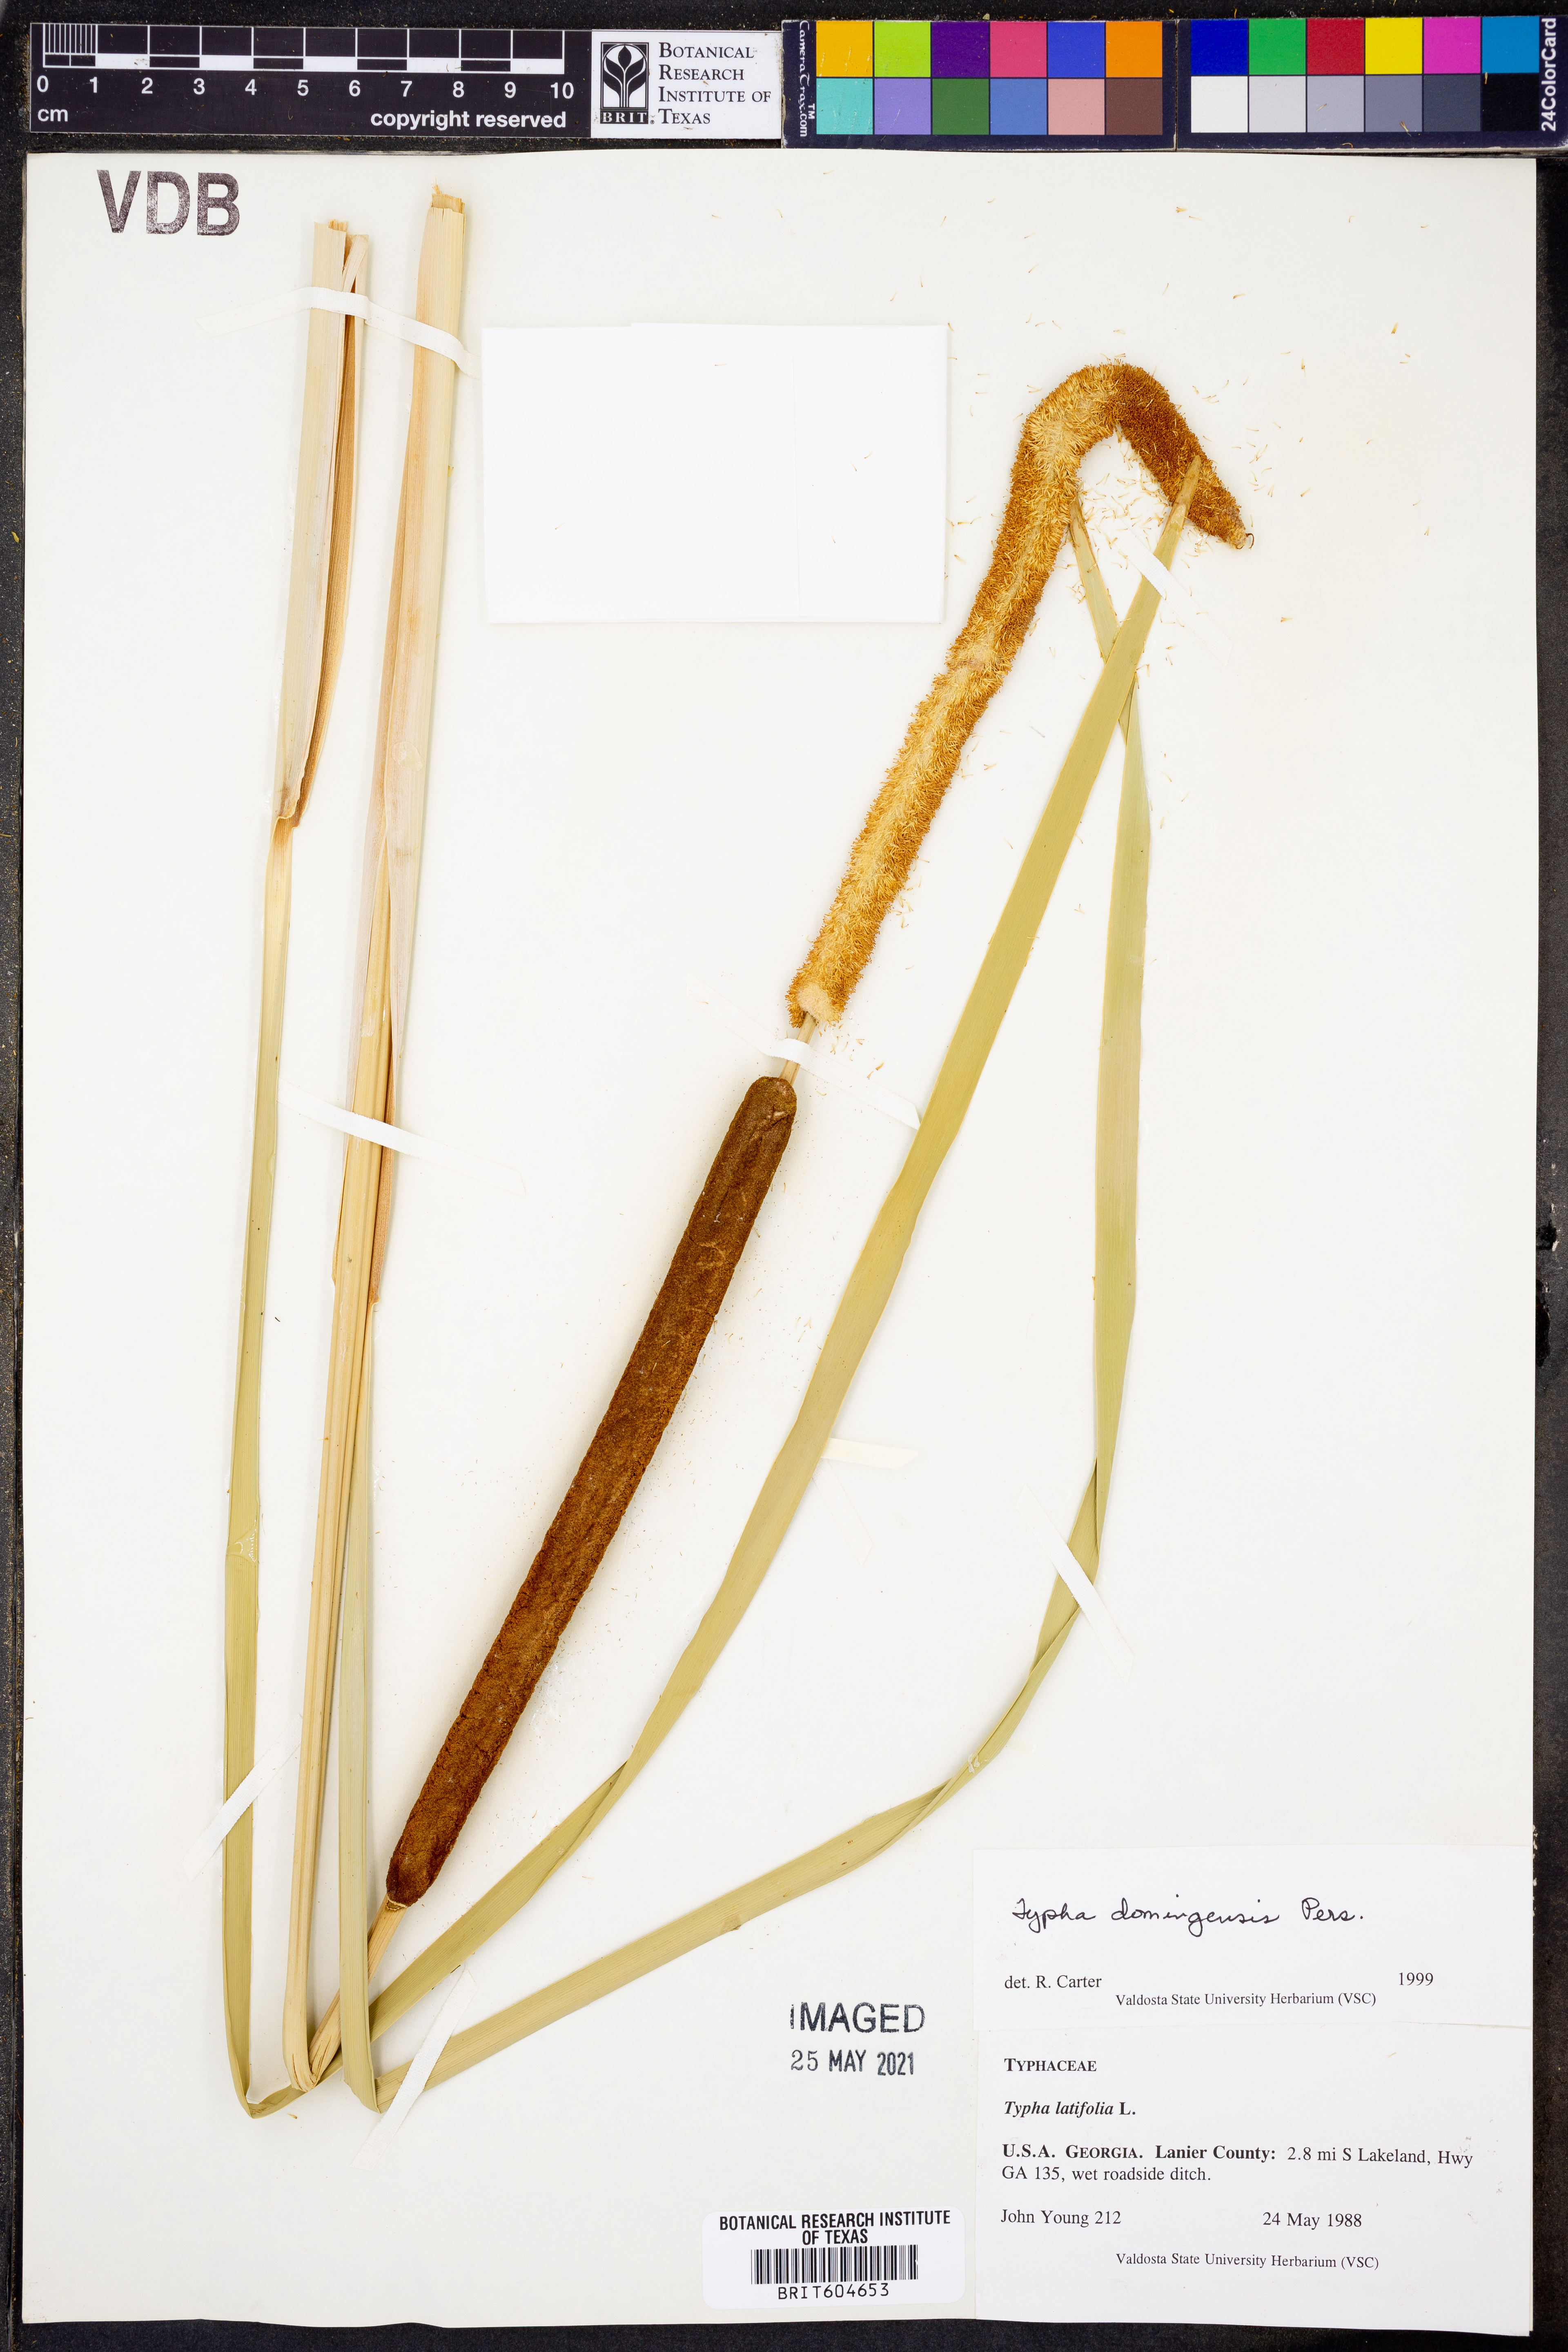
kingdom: Plantae
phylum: Tracheophyta
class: Liliopsida
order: Poales
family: Typhaceae
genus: Typha
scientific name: Typha domingensis
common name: Southern cattail
